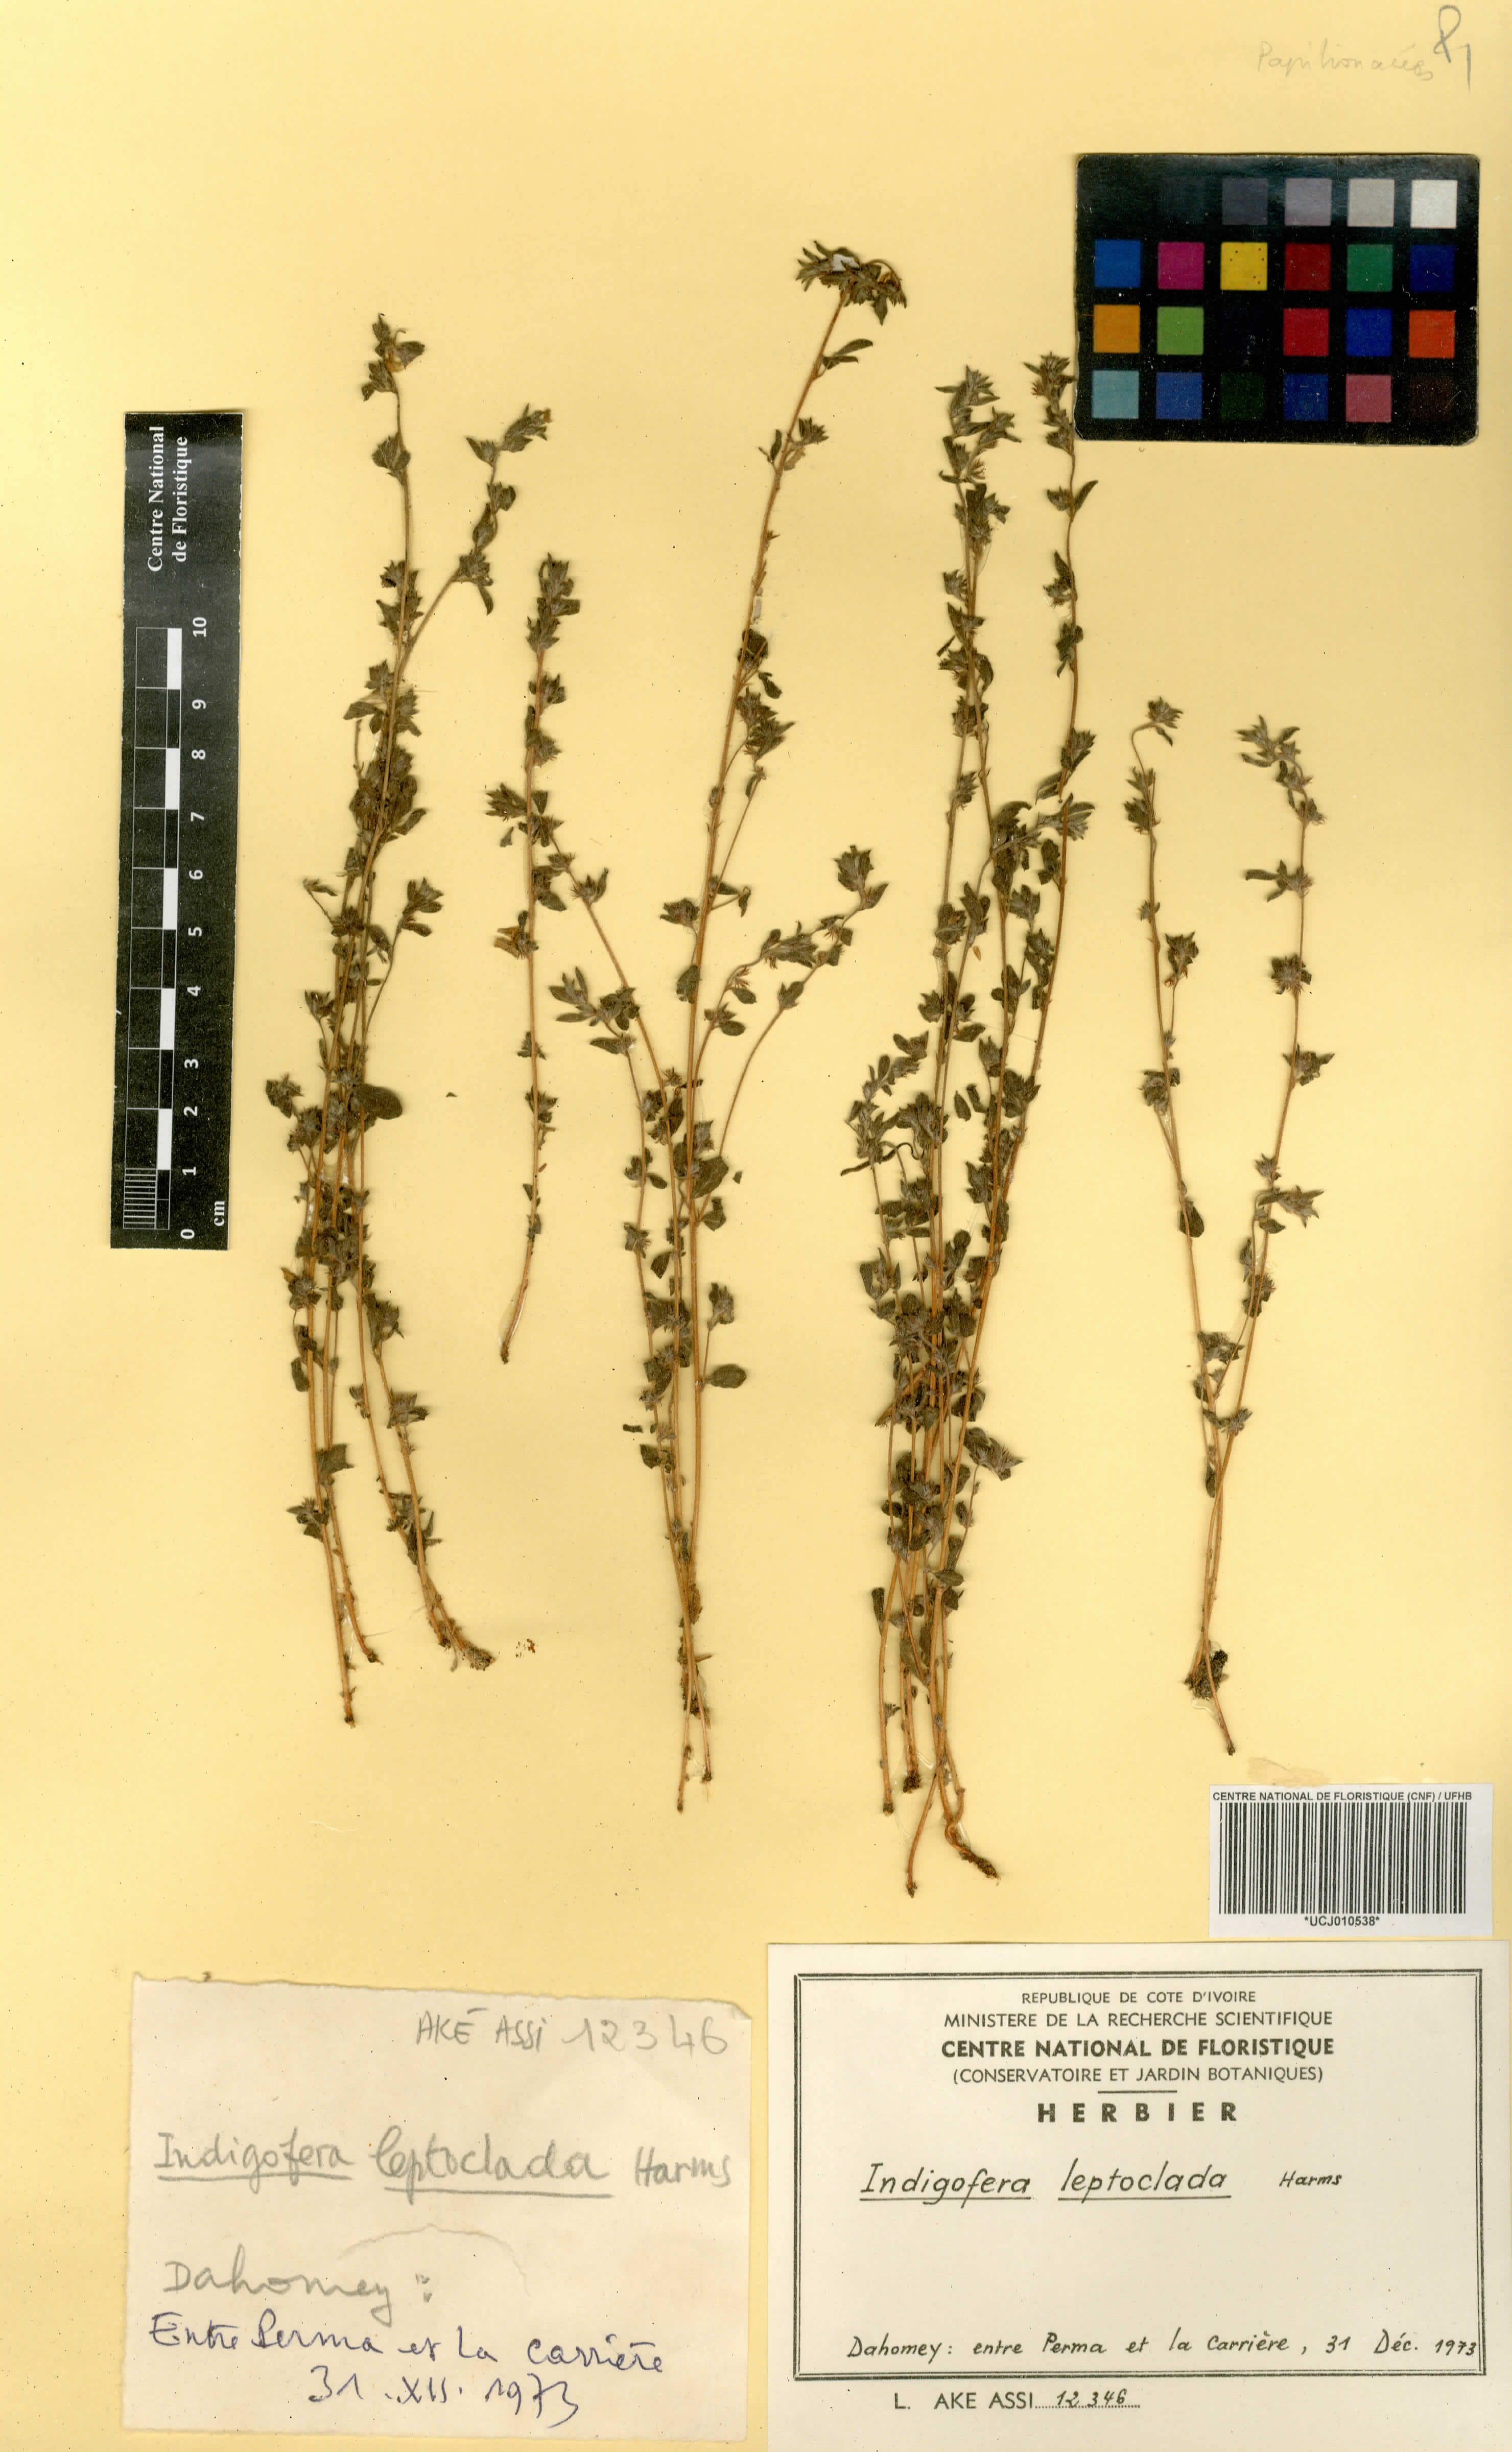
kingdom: Plantae
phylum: Tracheophyta
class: Magnoliopsida
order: Fabales
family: Fabaceae
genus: Indigofera
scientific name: Indigofera leptoclada
